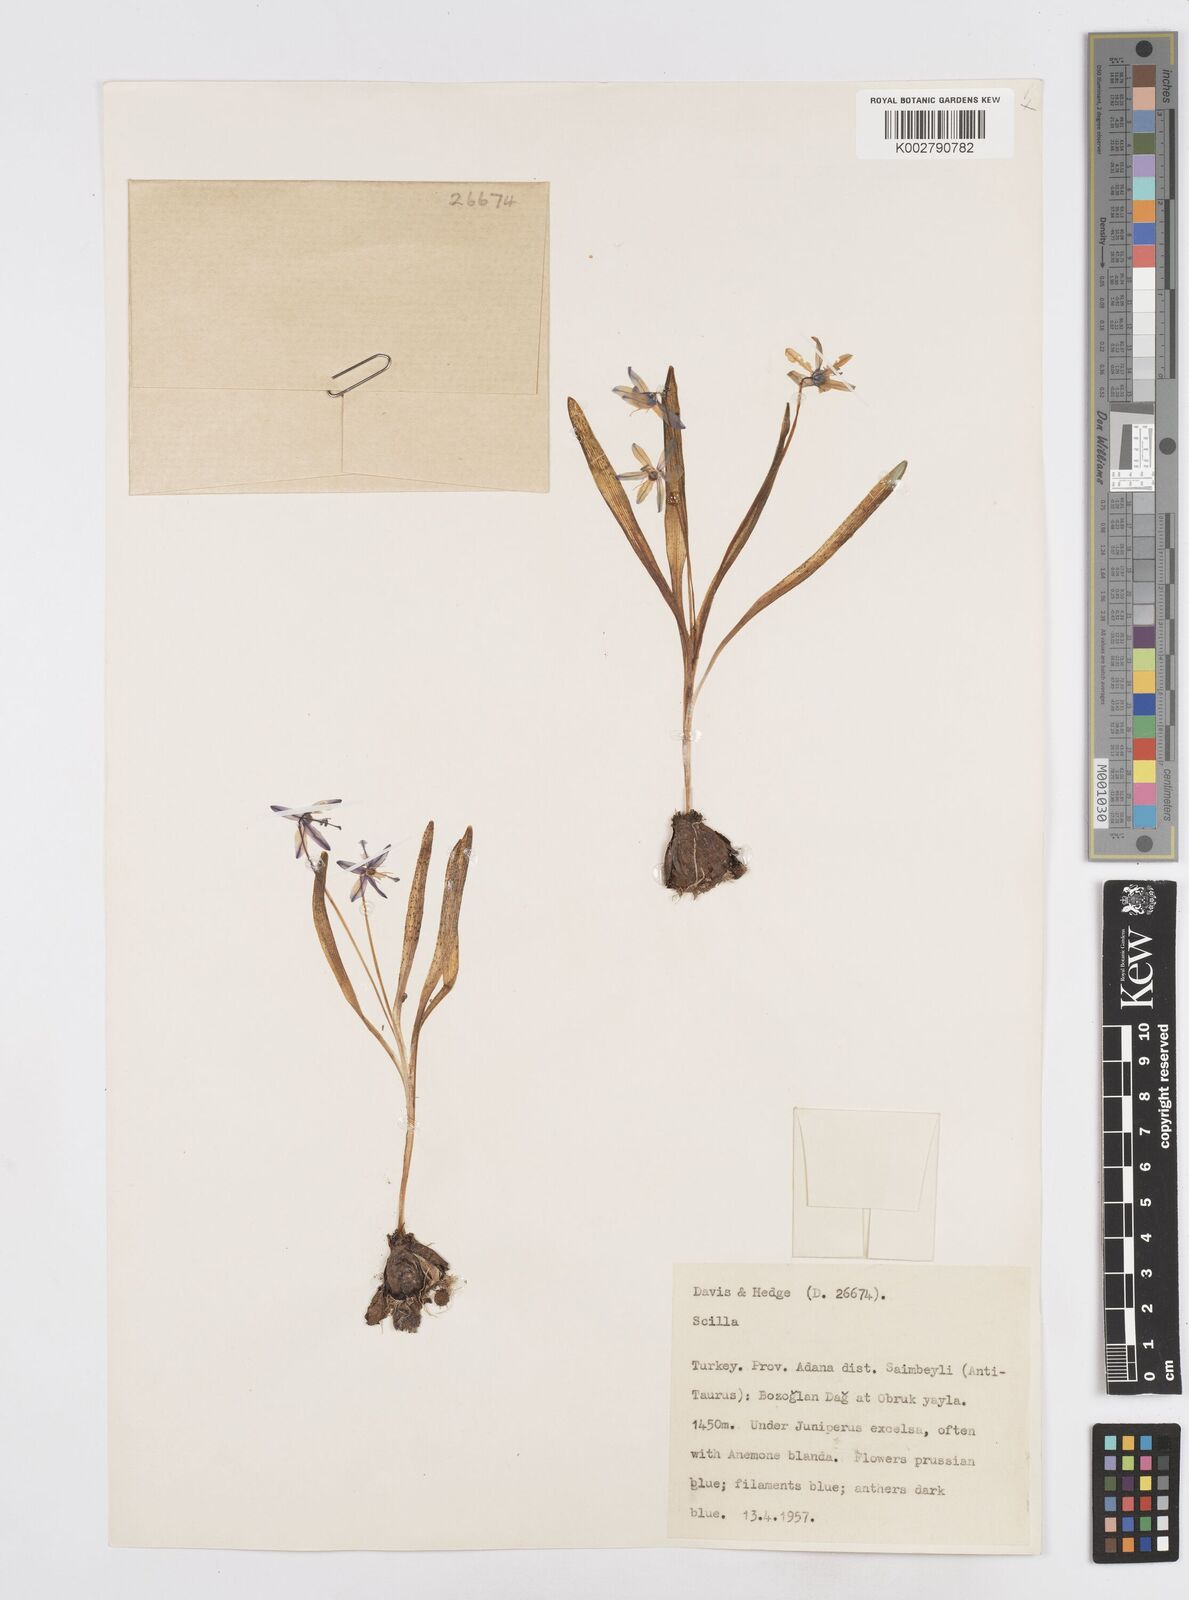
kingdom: Plantae
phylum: Tracheophyta
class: Liliopsida
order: Asparagales
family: Asparagaceae
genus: Scilla
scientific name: Scilla siberica
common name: Siberian squill
